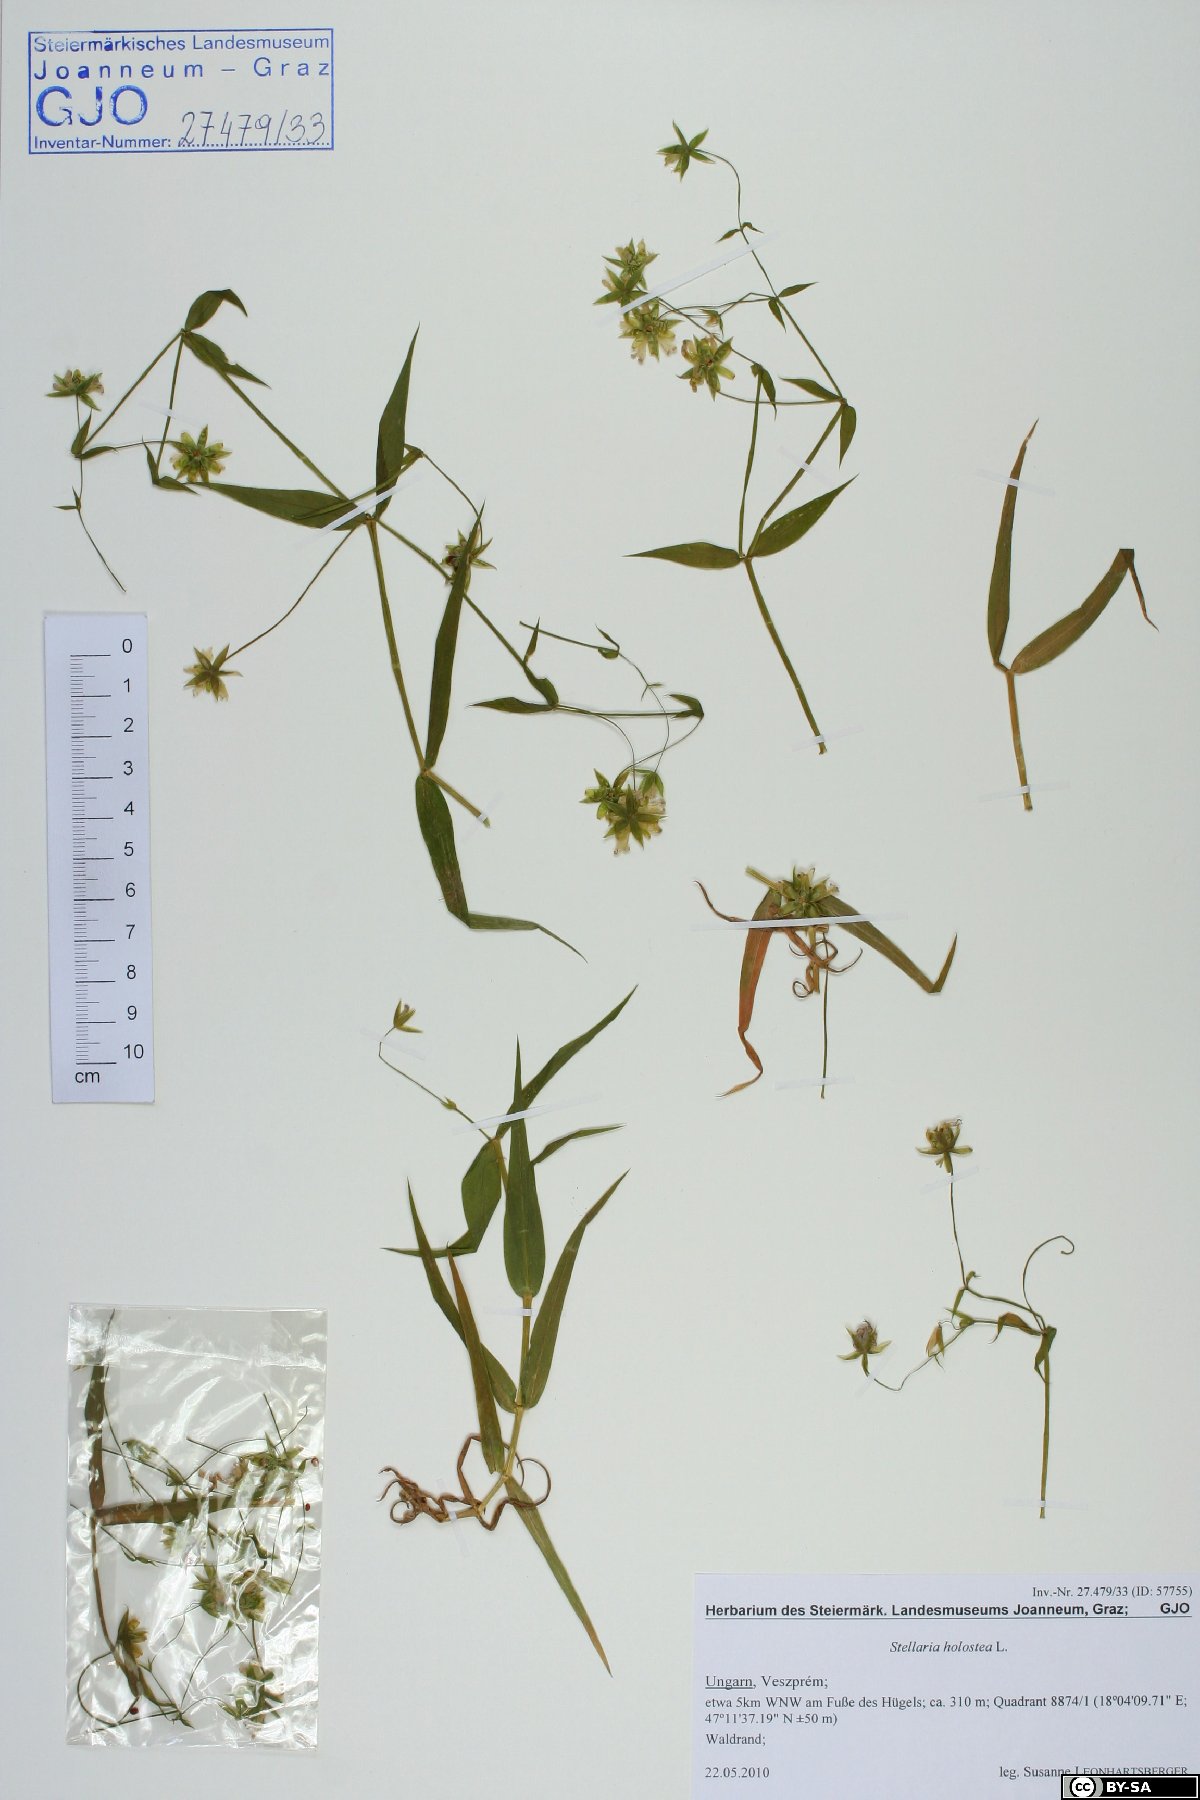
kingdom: Plantae
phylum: Tracheophyta
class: Magnoliopsida
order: Caryophyllales
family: Caryophyllaceae
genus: Rabelera
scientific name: Rabelera holostea
